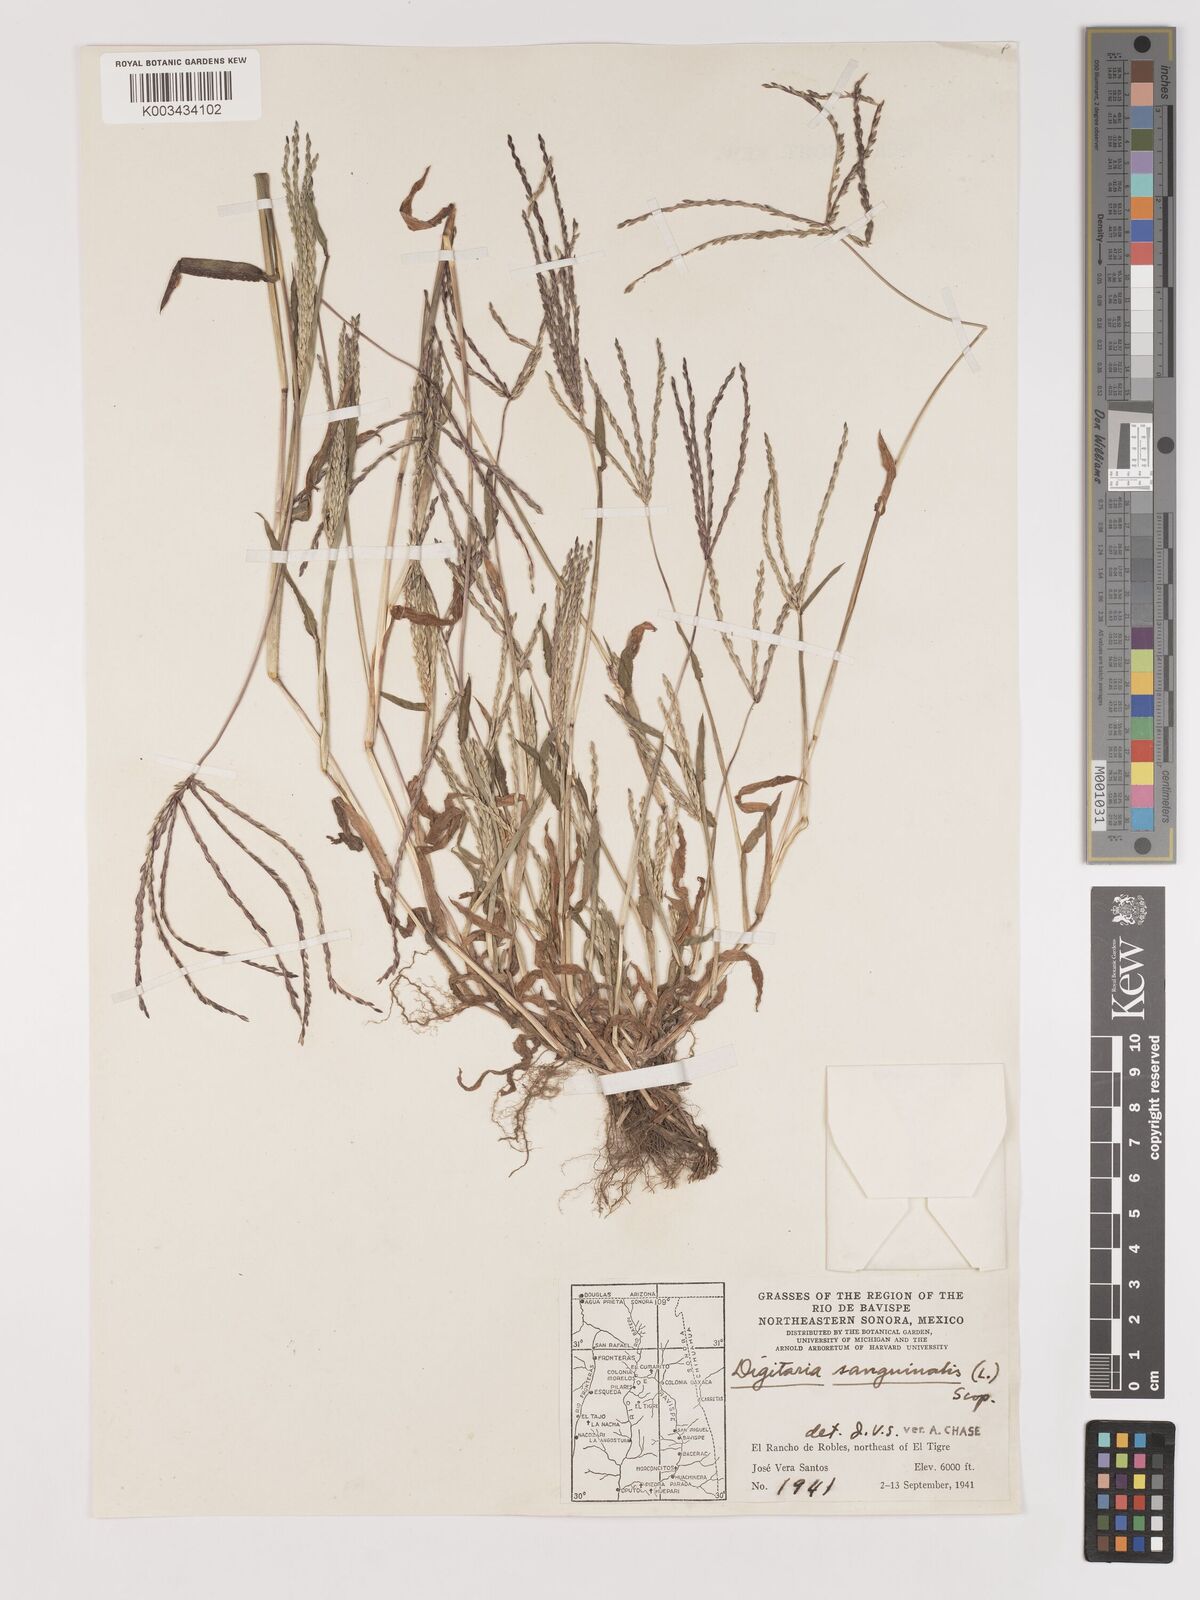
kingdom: Plantae
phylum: Tracheophyta
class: Liliopsida
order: Poales
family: Poaceae
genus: Digitaria
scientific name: Digitaria sanguinalis
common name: Hairy crabgrass
